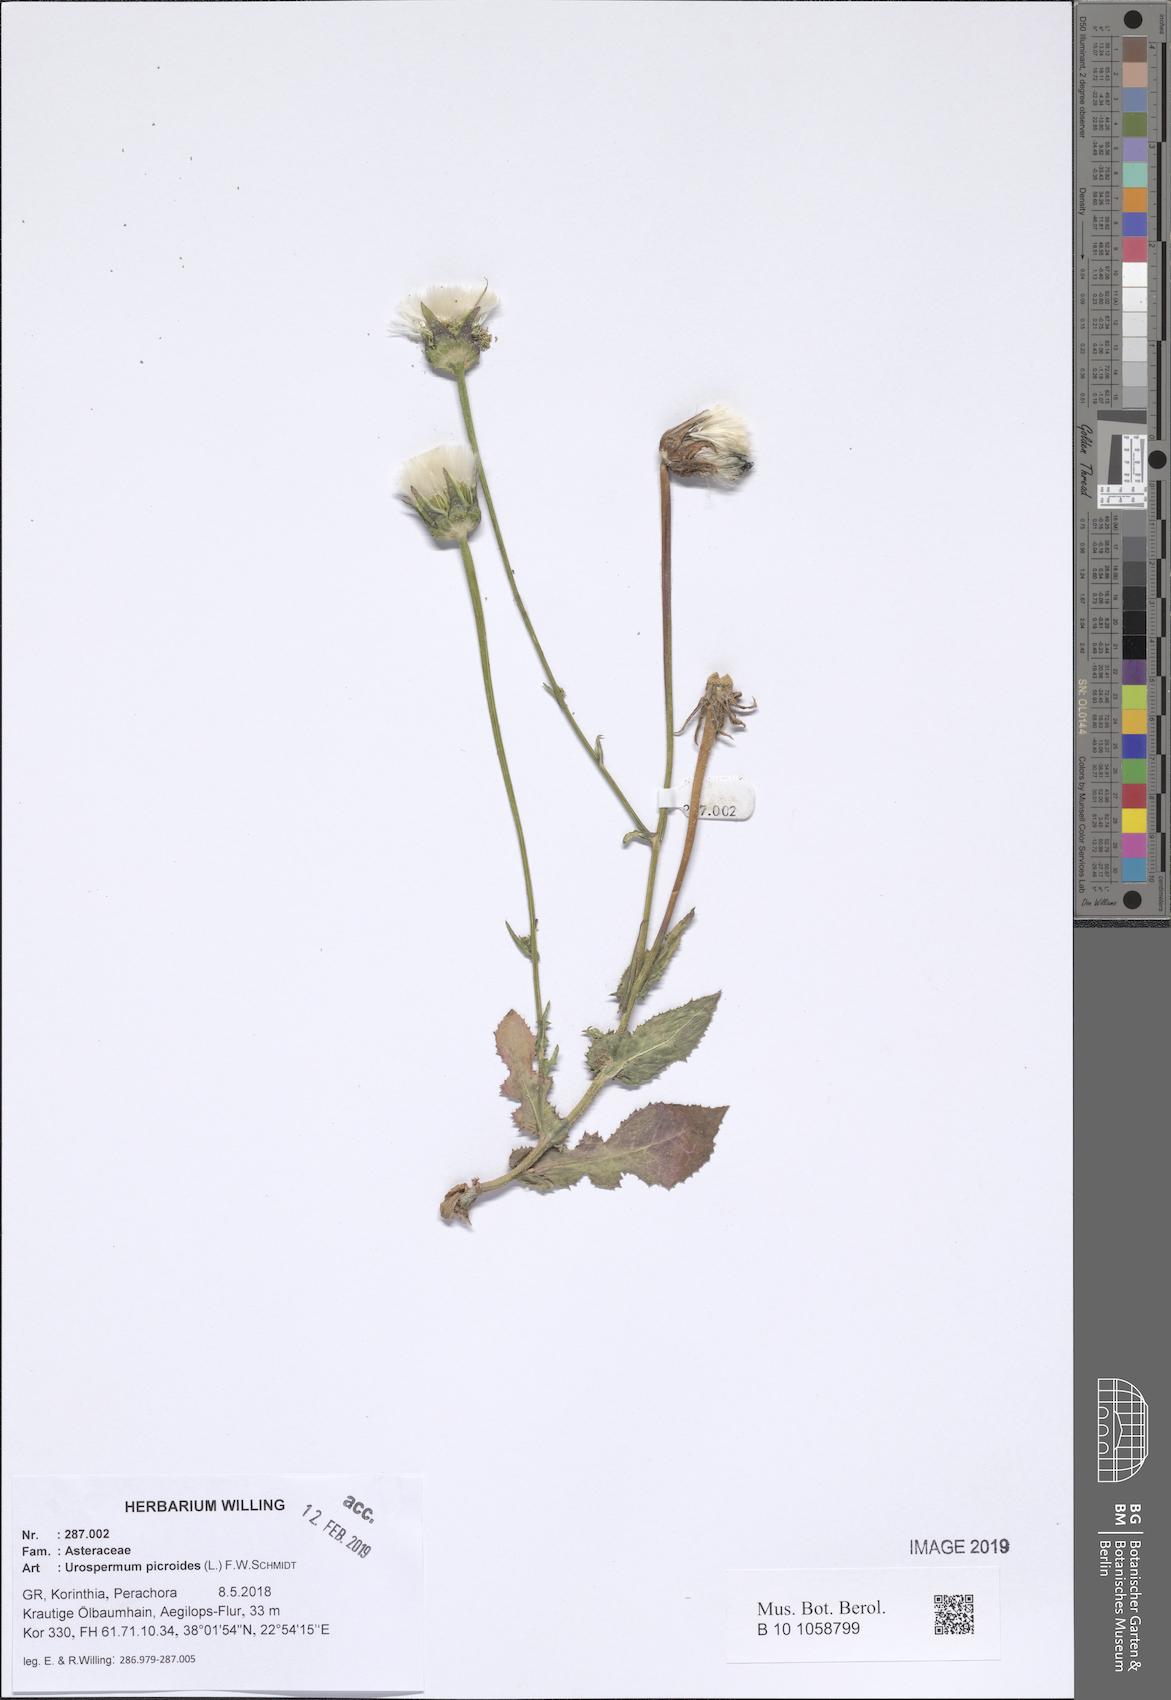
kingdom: Plantae
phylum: Tracheophyta
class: Magnoliopsida
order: Asterales
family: Asteraceae
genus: Urospermum
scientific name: Urospermum picroides
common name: False hawkbit
